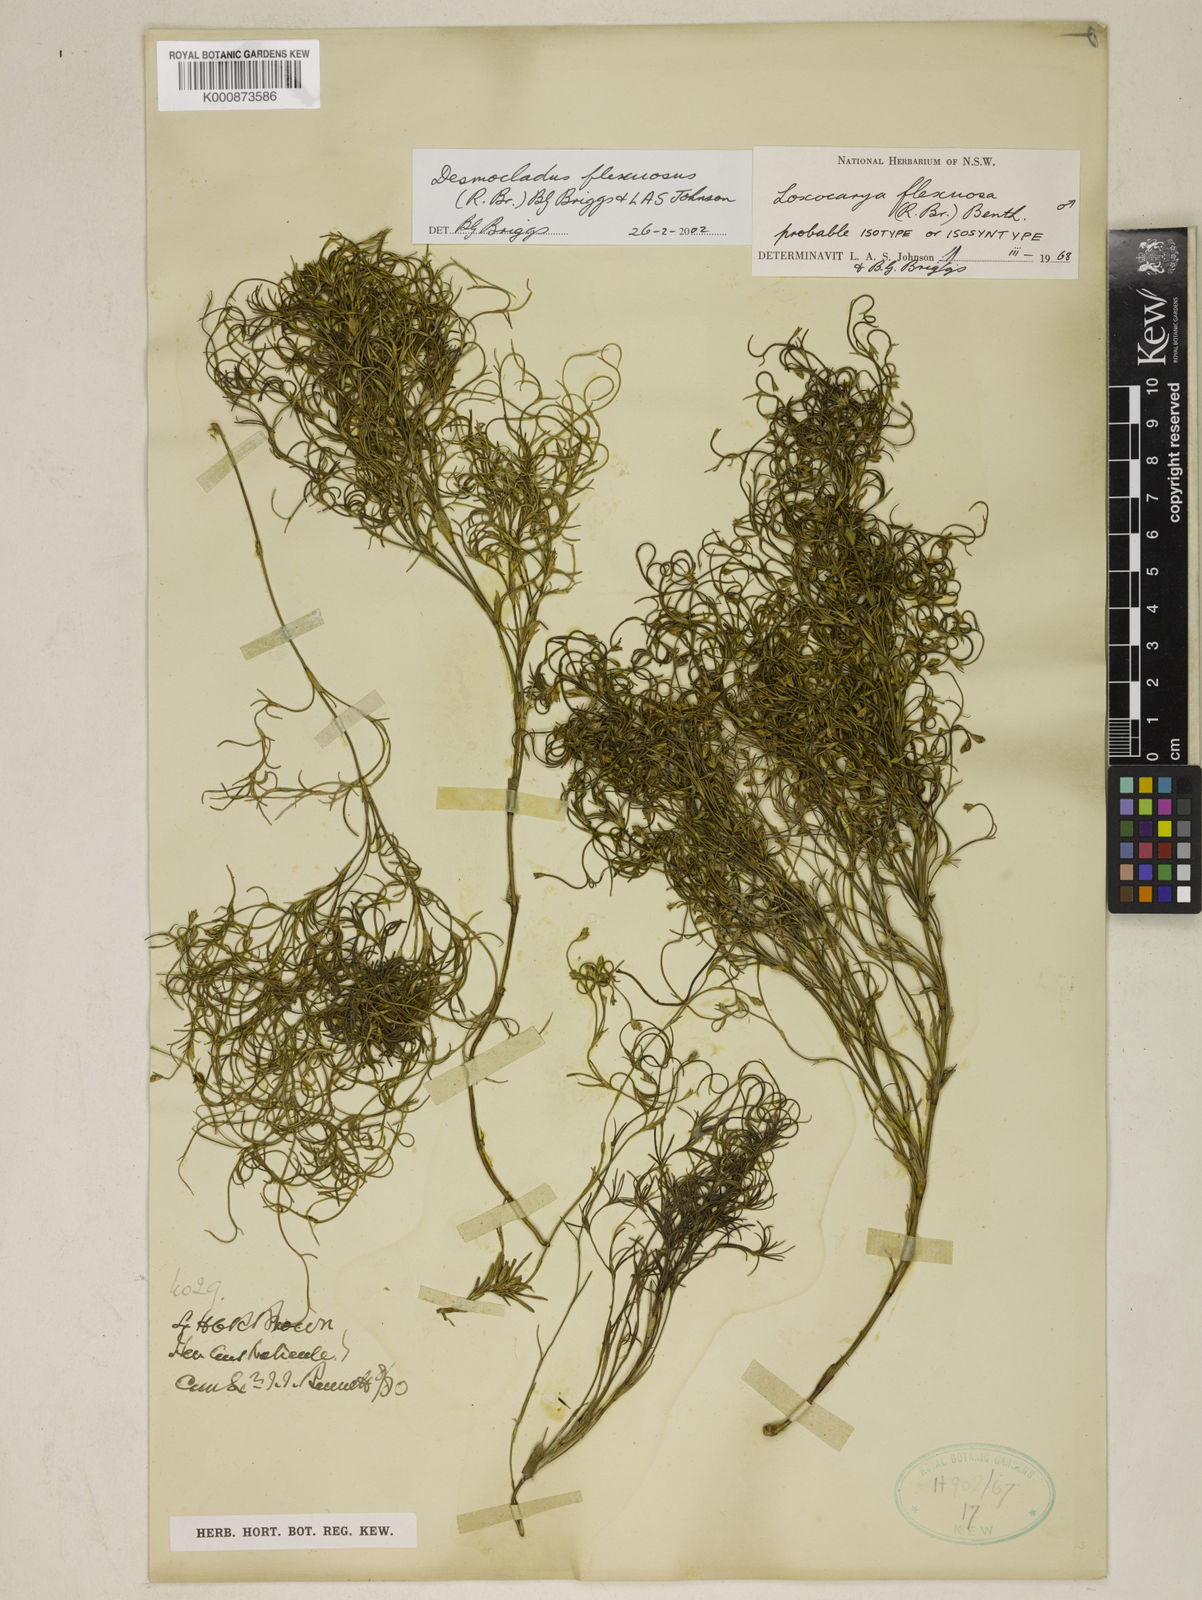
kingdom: Plantae
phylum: Tracheophyta
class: Liliopsida
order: Poales
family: Restionaceae
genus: Desmocladus
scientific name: Desmocladus flexuosus
